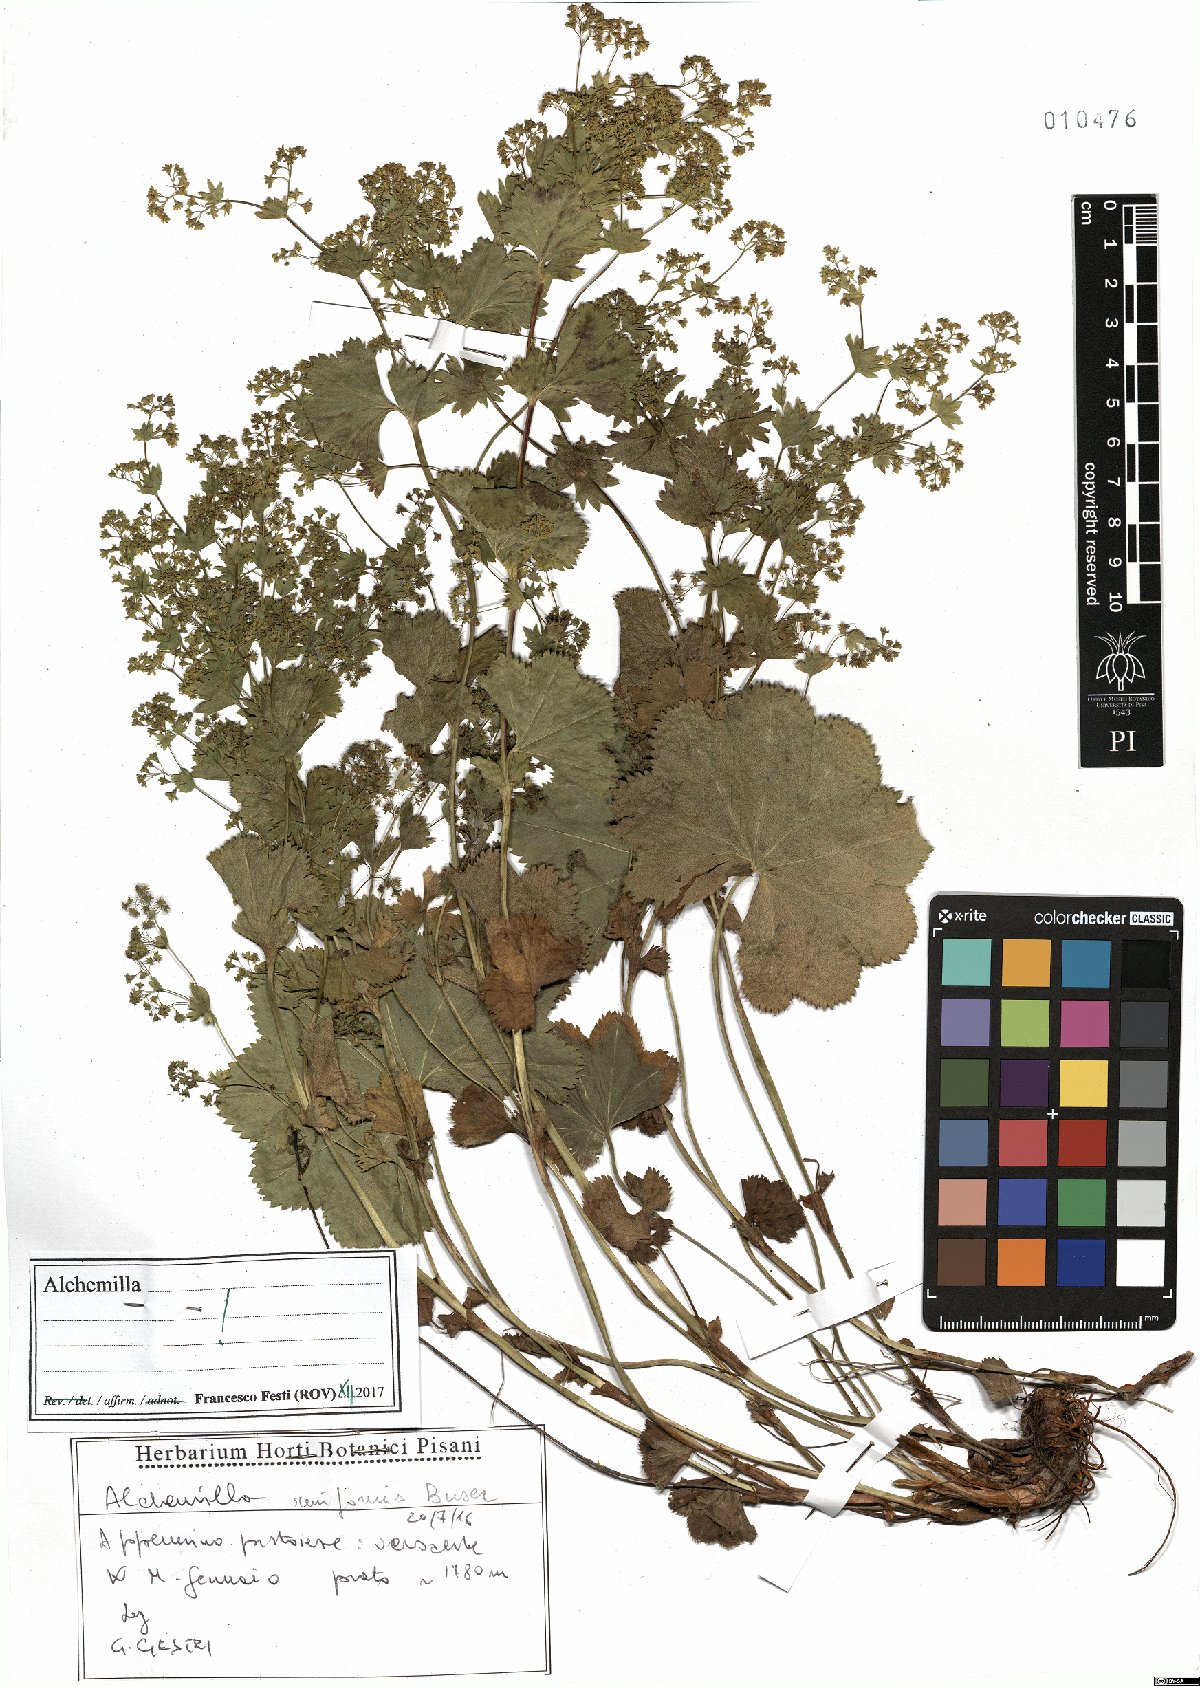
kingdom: Plantae
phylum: Tracheophyta
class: Magnoliopsida
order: Rosales
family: Rosaceae
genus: Alchemilla
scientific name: Alchemilla reniformis
